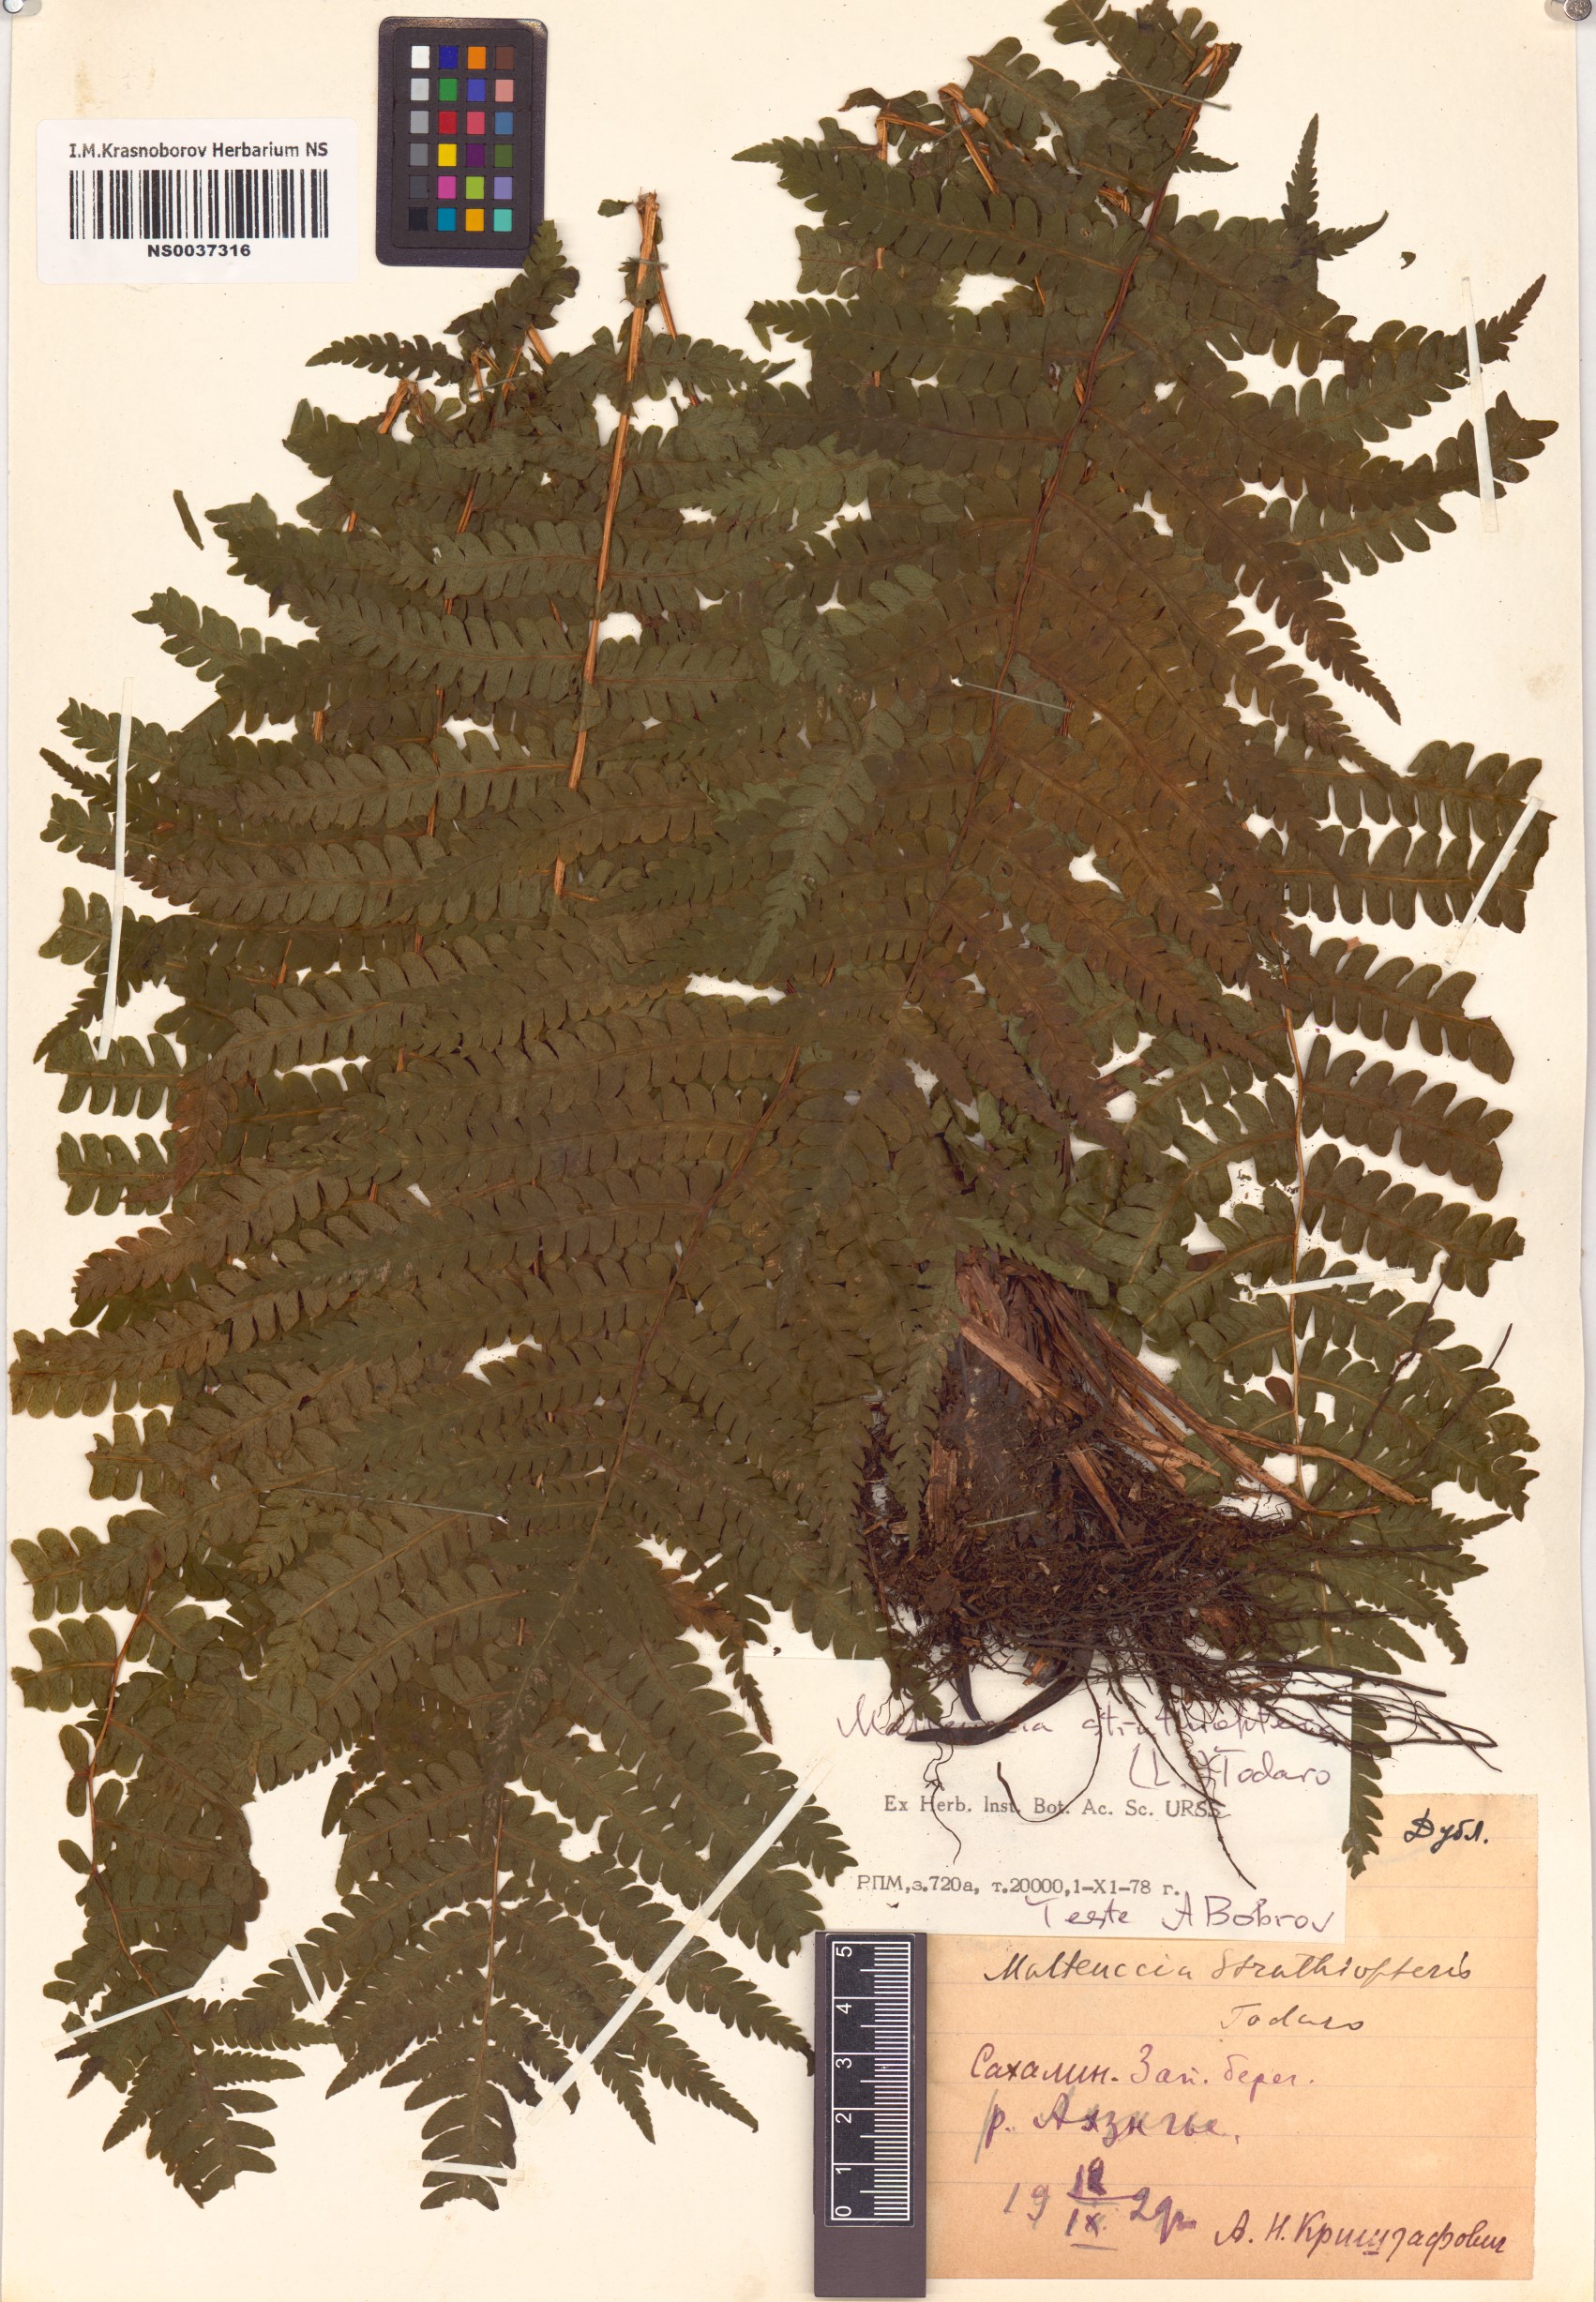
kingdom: Plantae
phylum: Tracheophyta
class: Polypodiopsida
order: Polypodiales
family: Onocleaceae
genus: Matteuccia
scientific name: Matteuccia struthiopteris
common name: Ostrich fern
